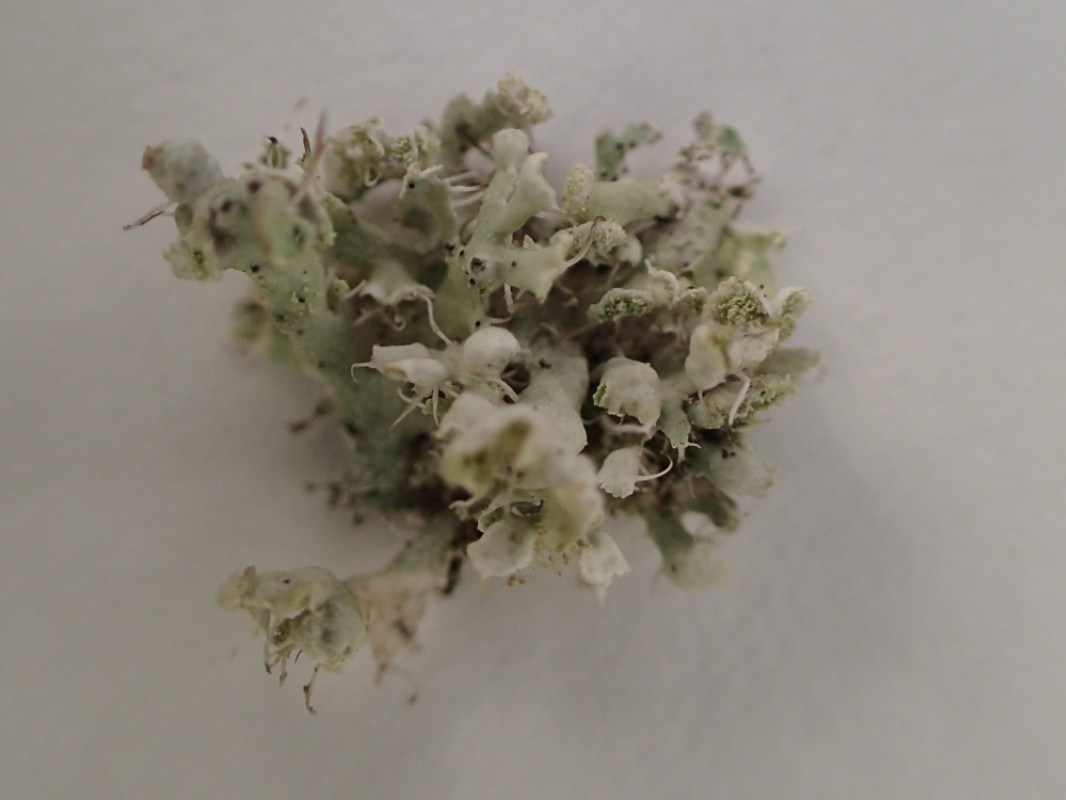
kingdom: Fungi
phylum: Ascomycota
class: Lecanoromycetes
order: Caliciales
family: Physciaceae
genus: Physcia
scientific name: Physcia adscendens
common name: hætte-rosetlav
